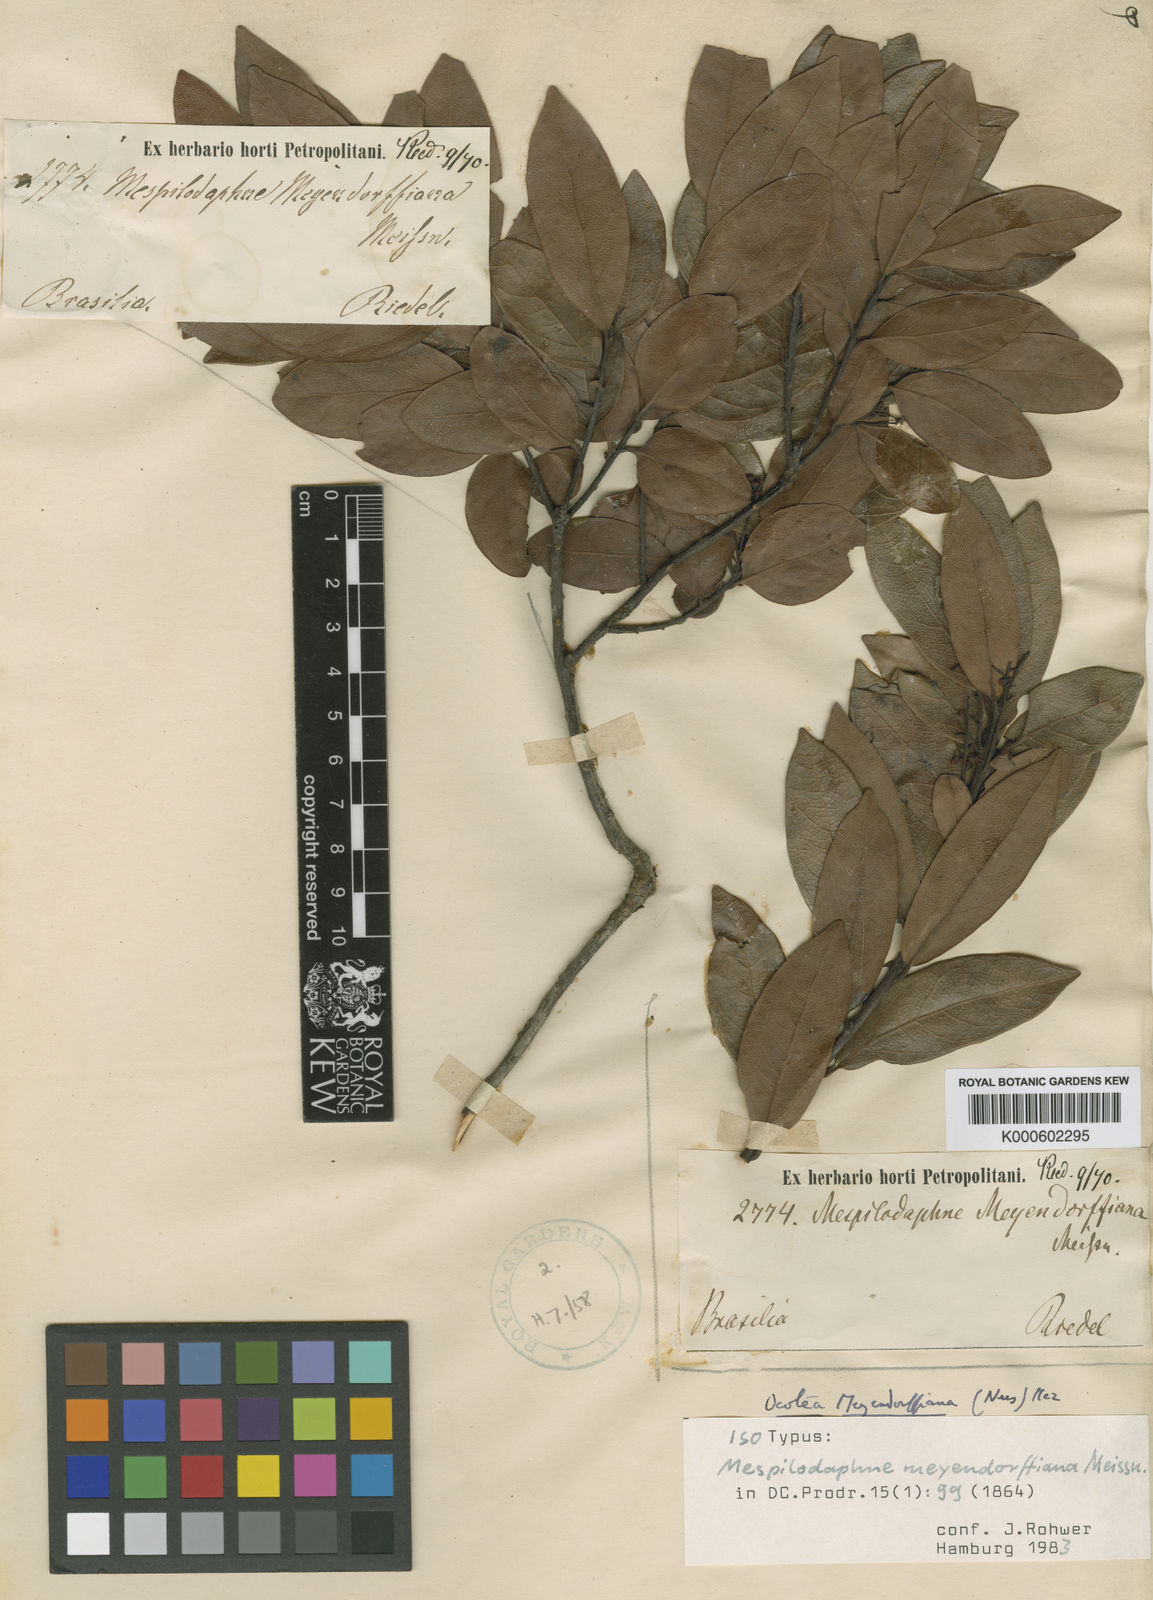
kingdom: Plantae
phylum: Tracheophyta
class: Magnoliopsida
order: Laurales
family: Lauraceae
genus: Mespilodaphne
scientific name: Mespilodaphne meyendorffiana
